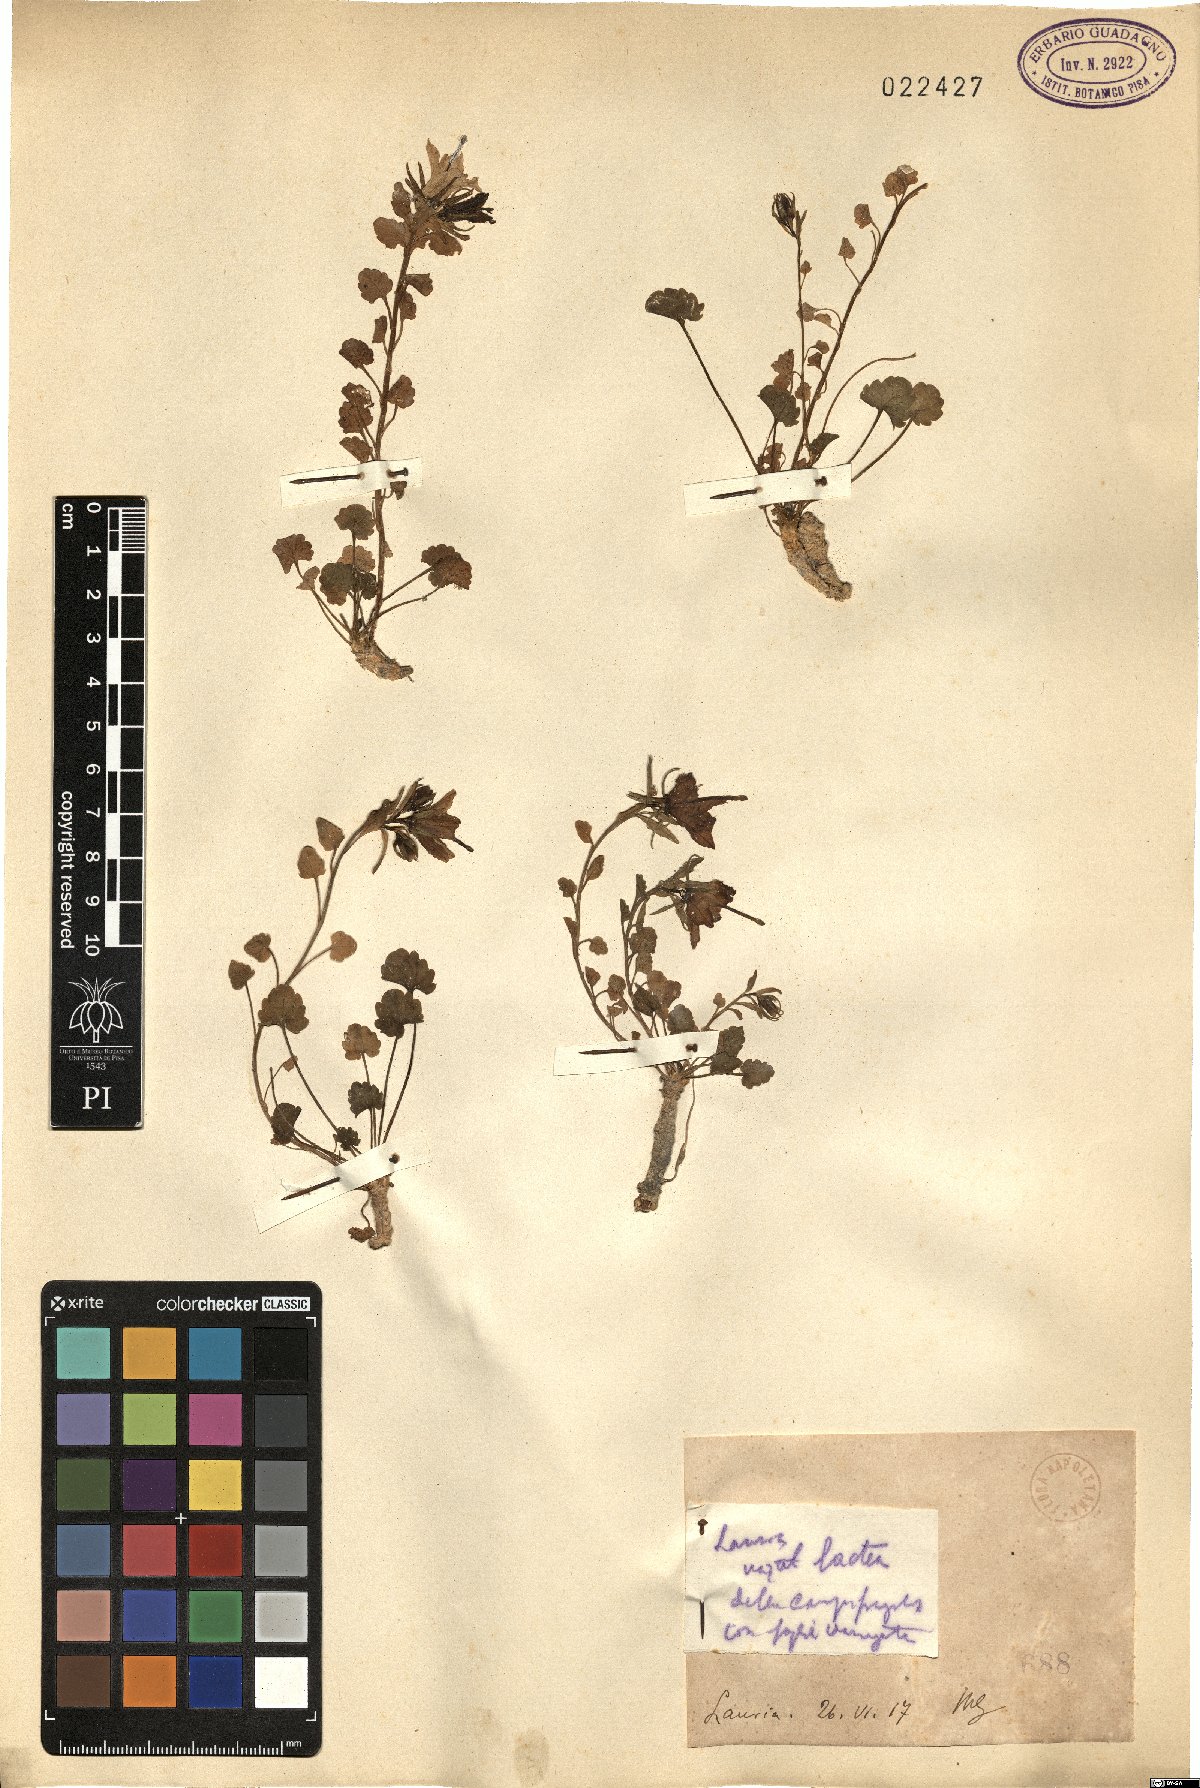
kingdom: Plantae
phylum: Tracheophyta
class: Magnoliopsida
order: Asterales
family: Campanulaceae
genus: Campanula
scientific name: Campanula
